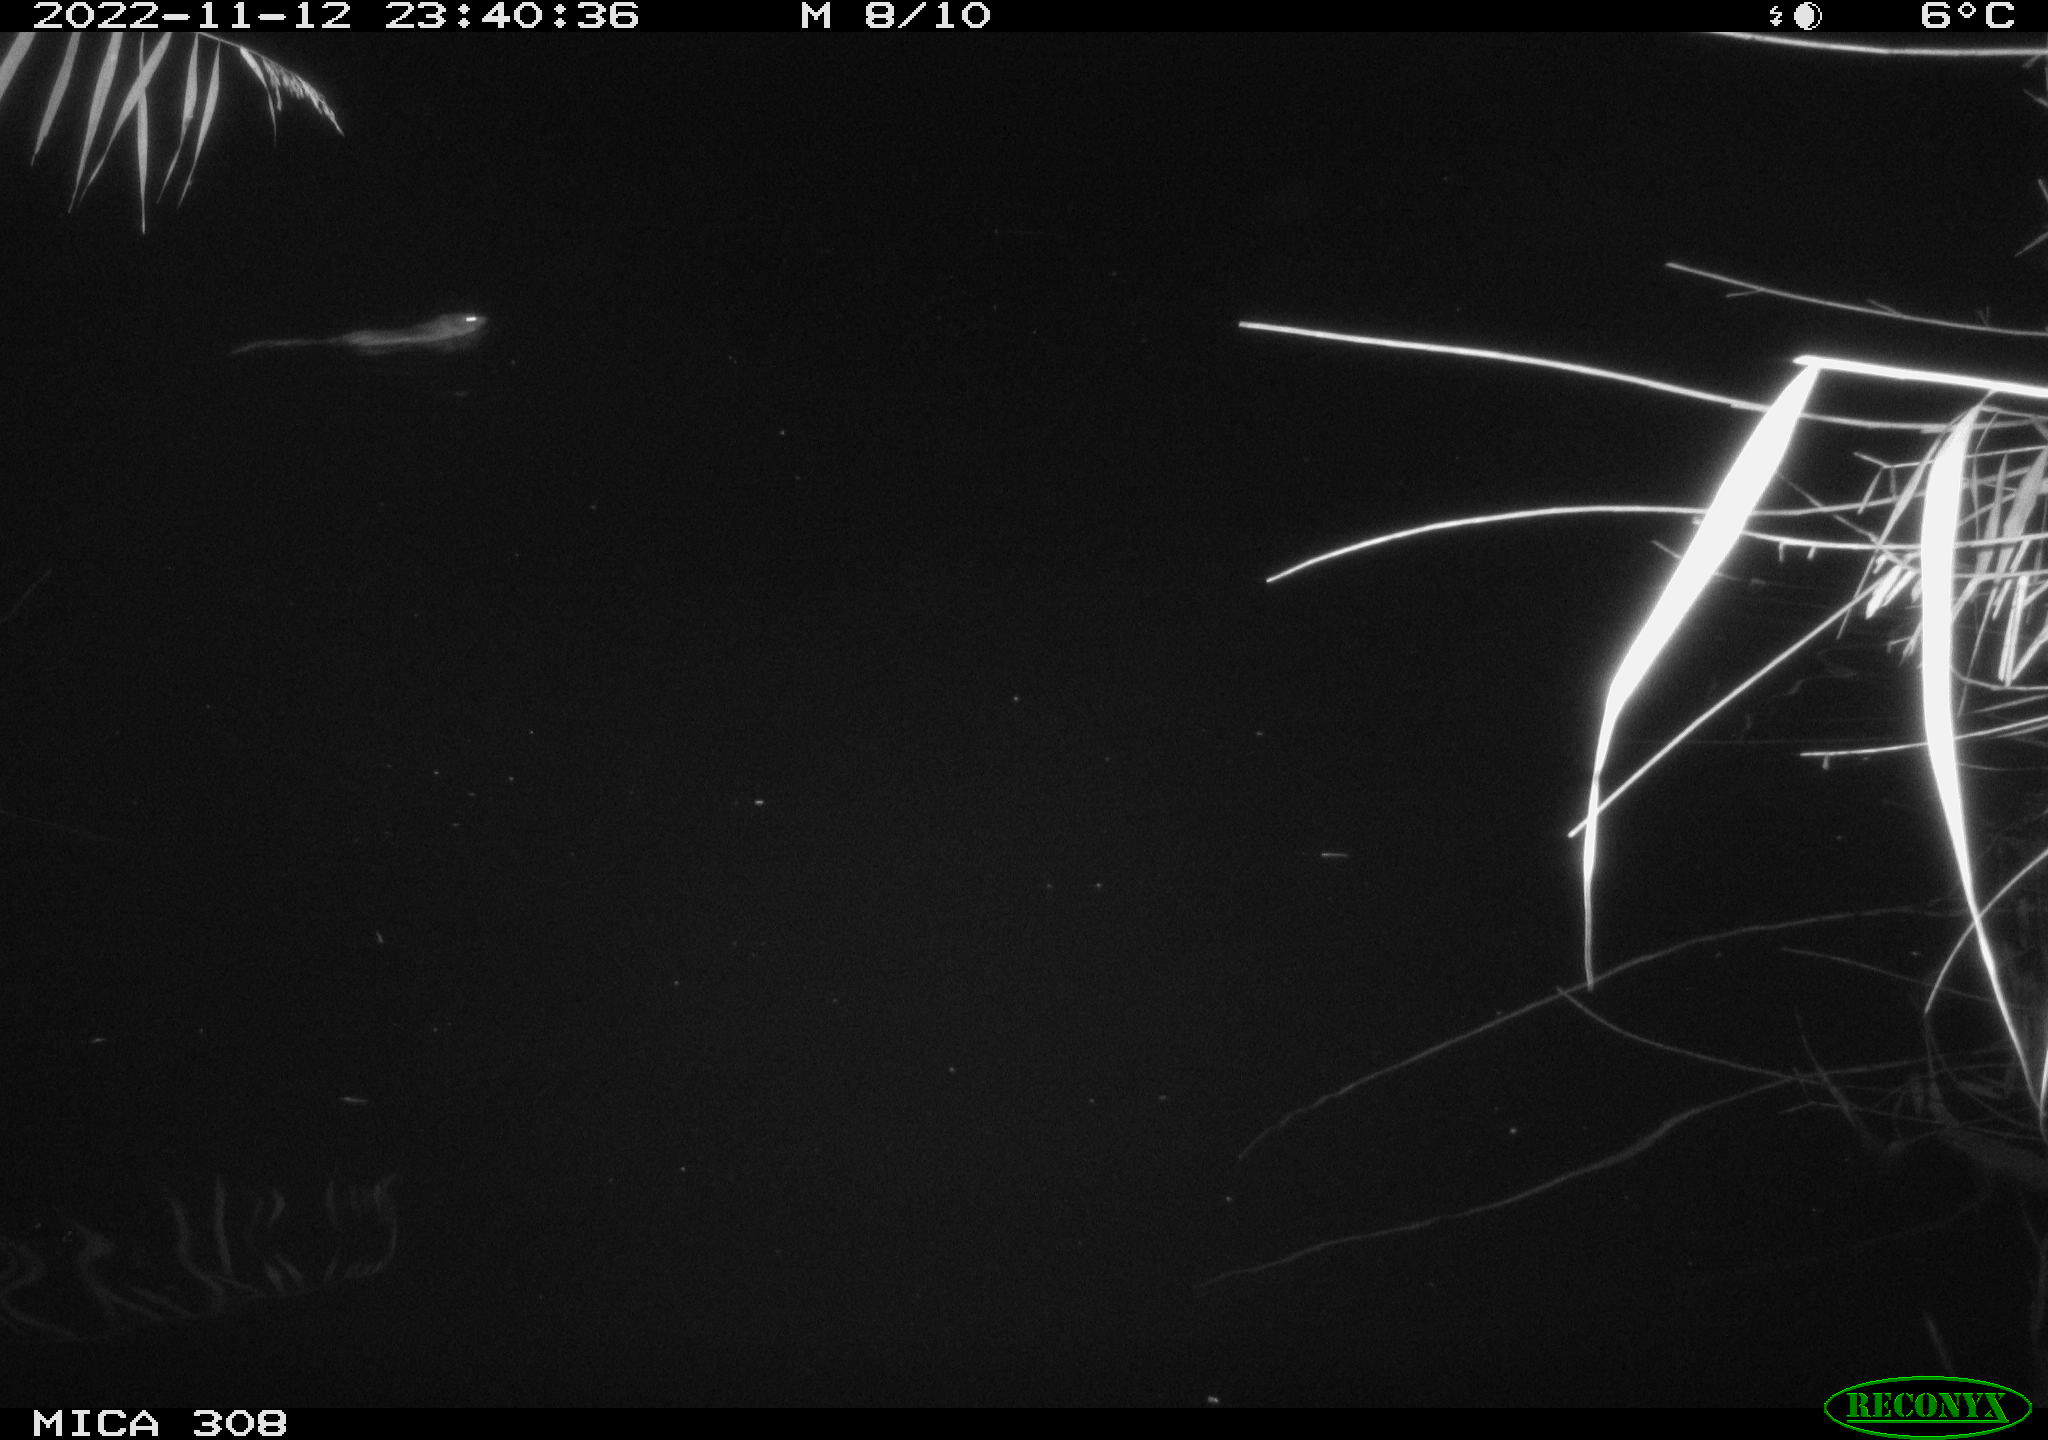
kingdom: Animalia
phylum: Chordata
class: Mammalia
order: Rodentia
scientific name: Rodentia
